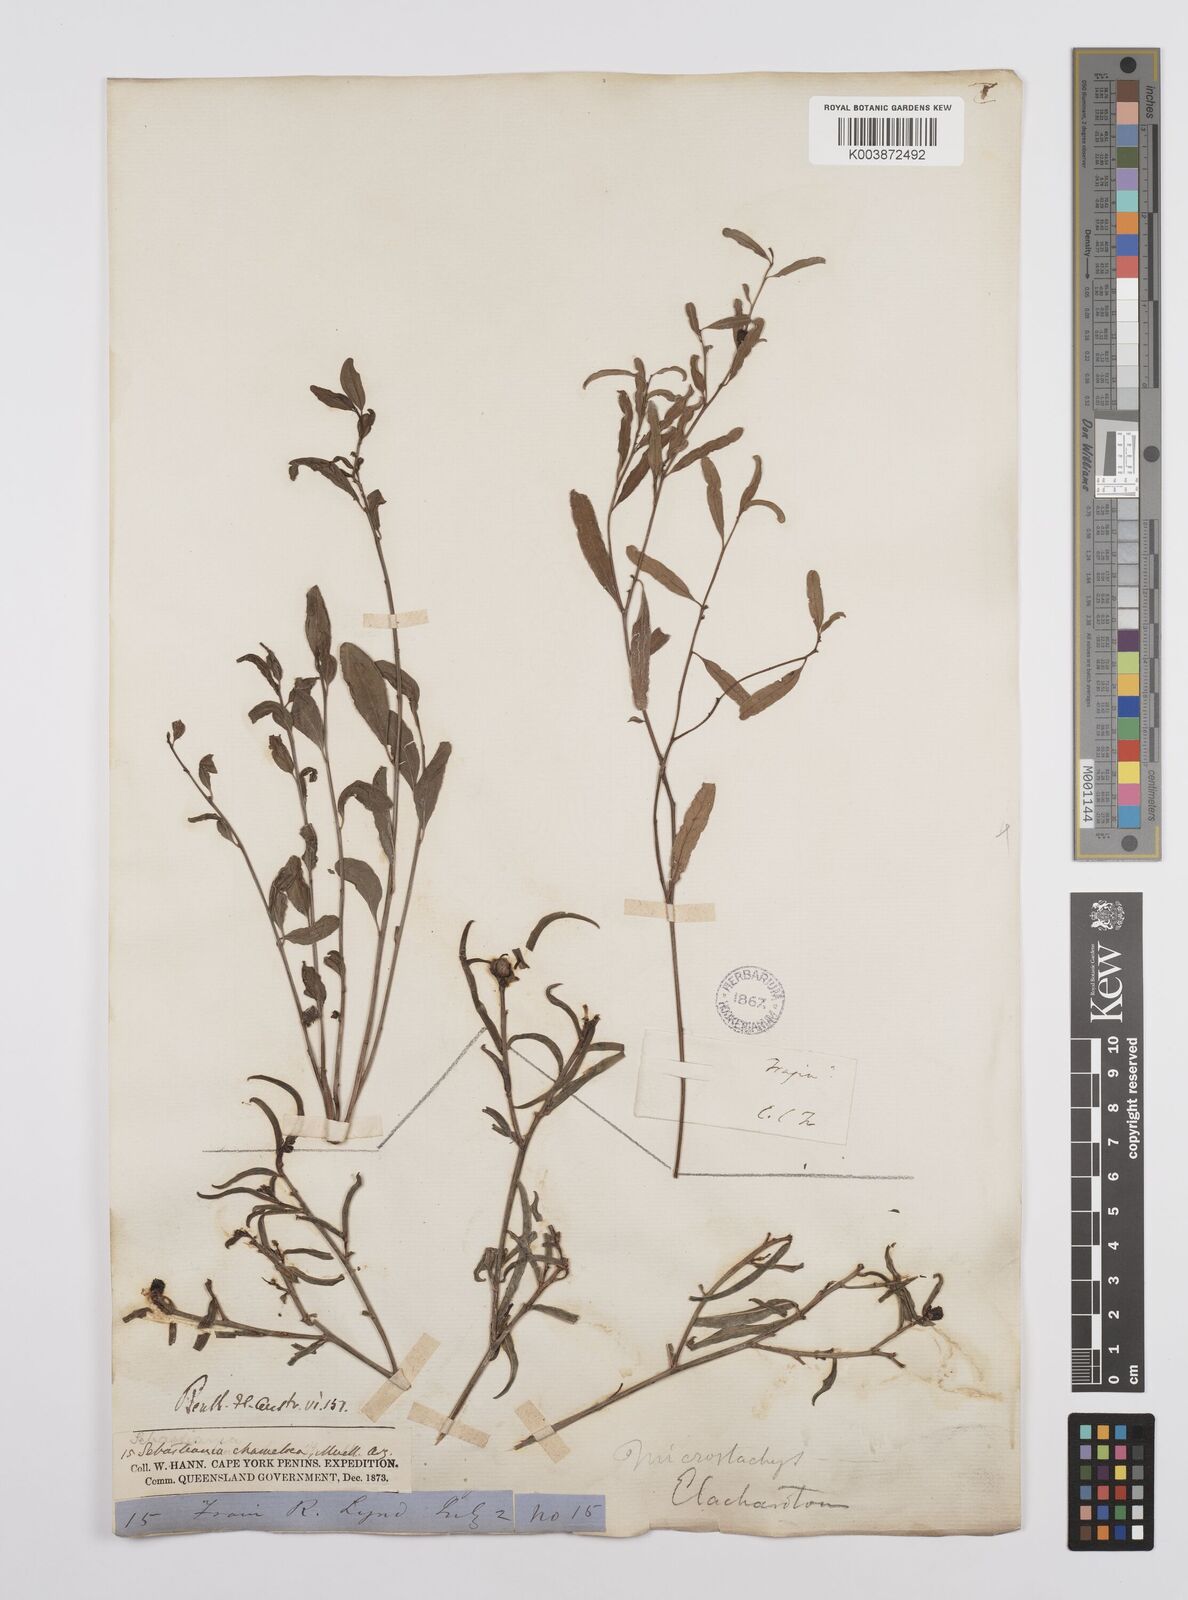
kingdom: Plantae
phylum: Tracheophyta
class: Magnoliopsida
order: Malpighiales
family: Euphorbiaceae
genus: Microstachys
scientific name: Microstachys chamaelea
